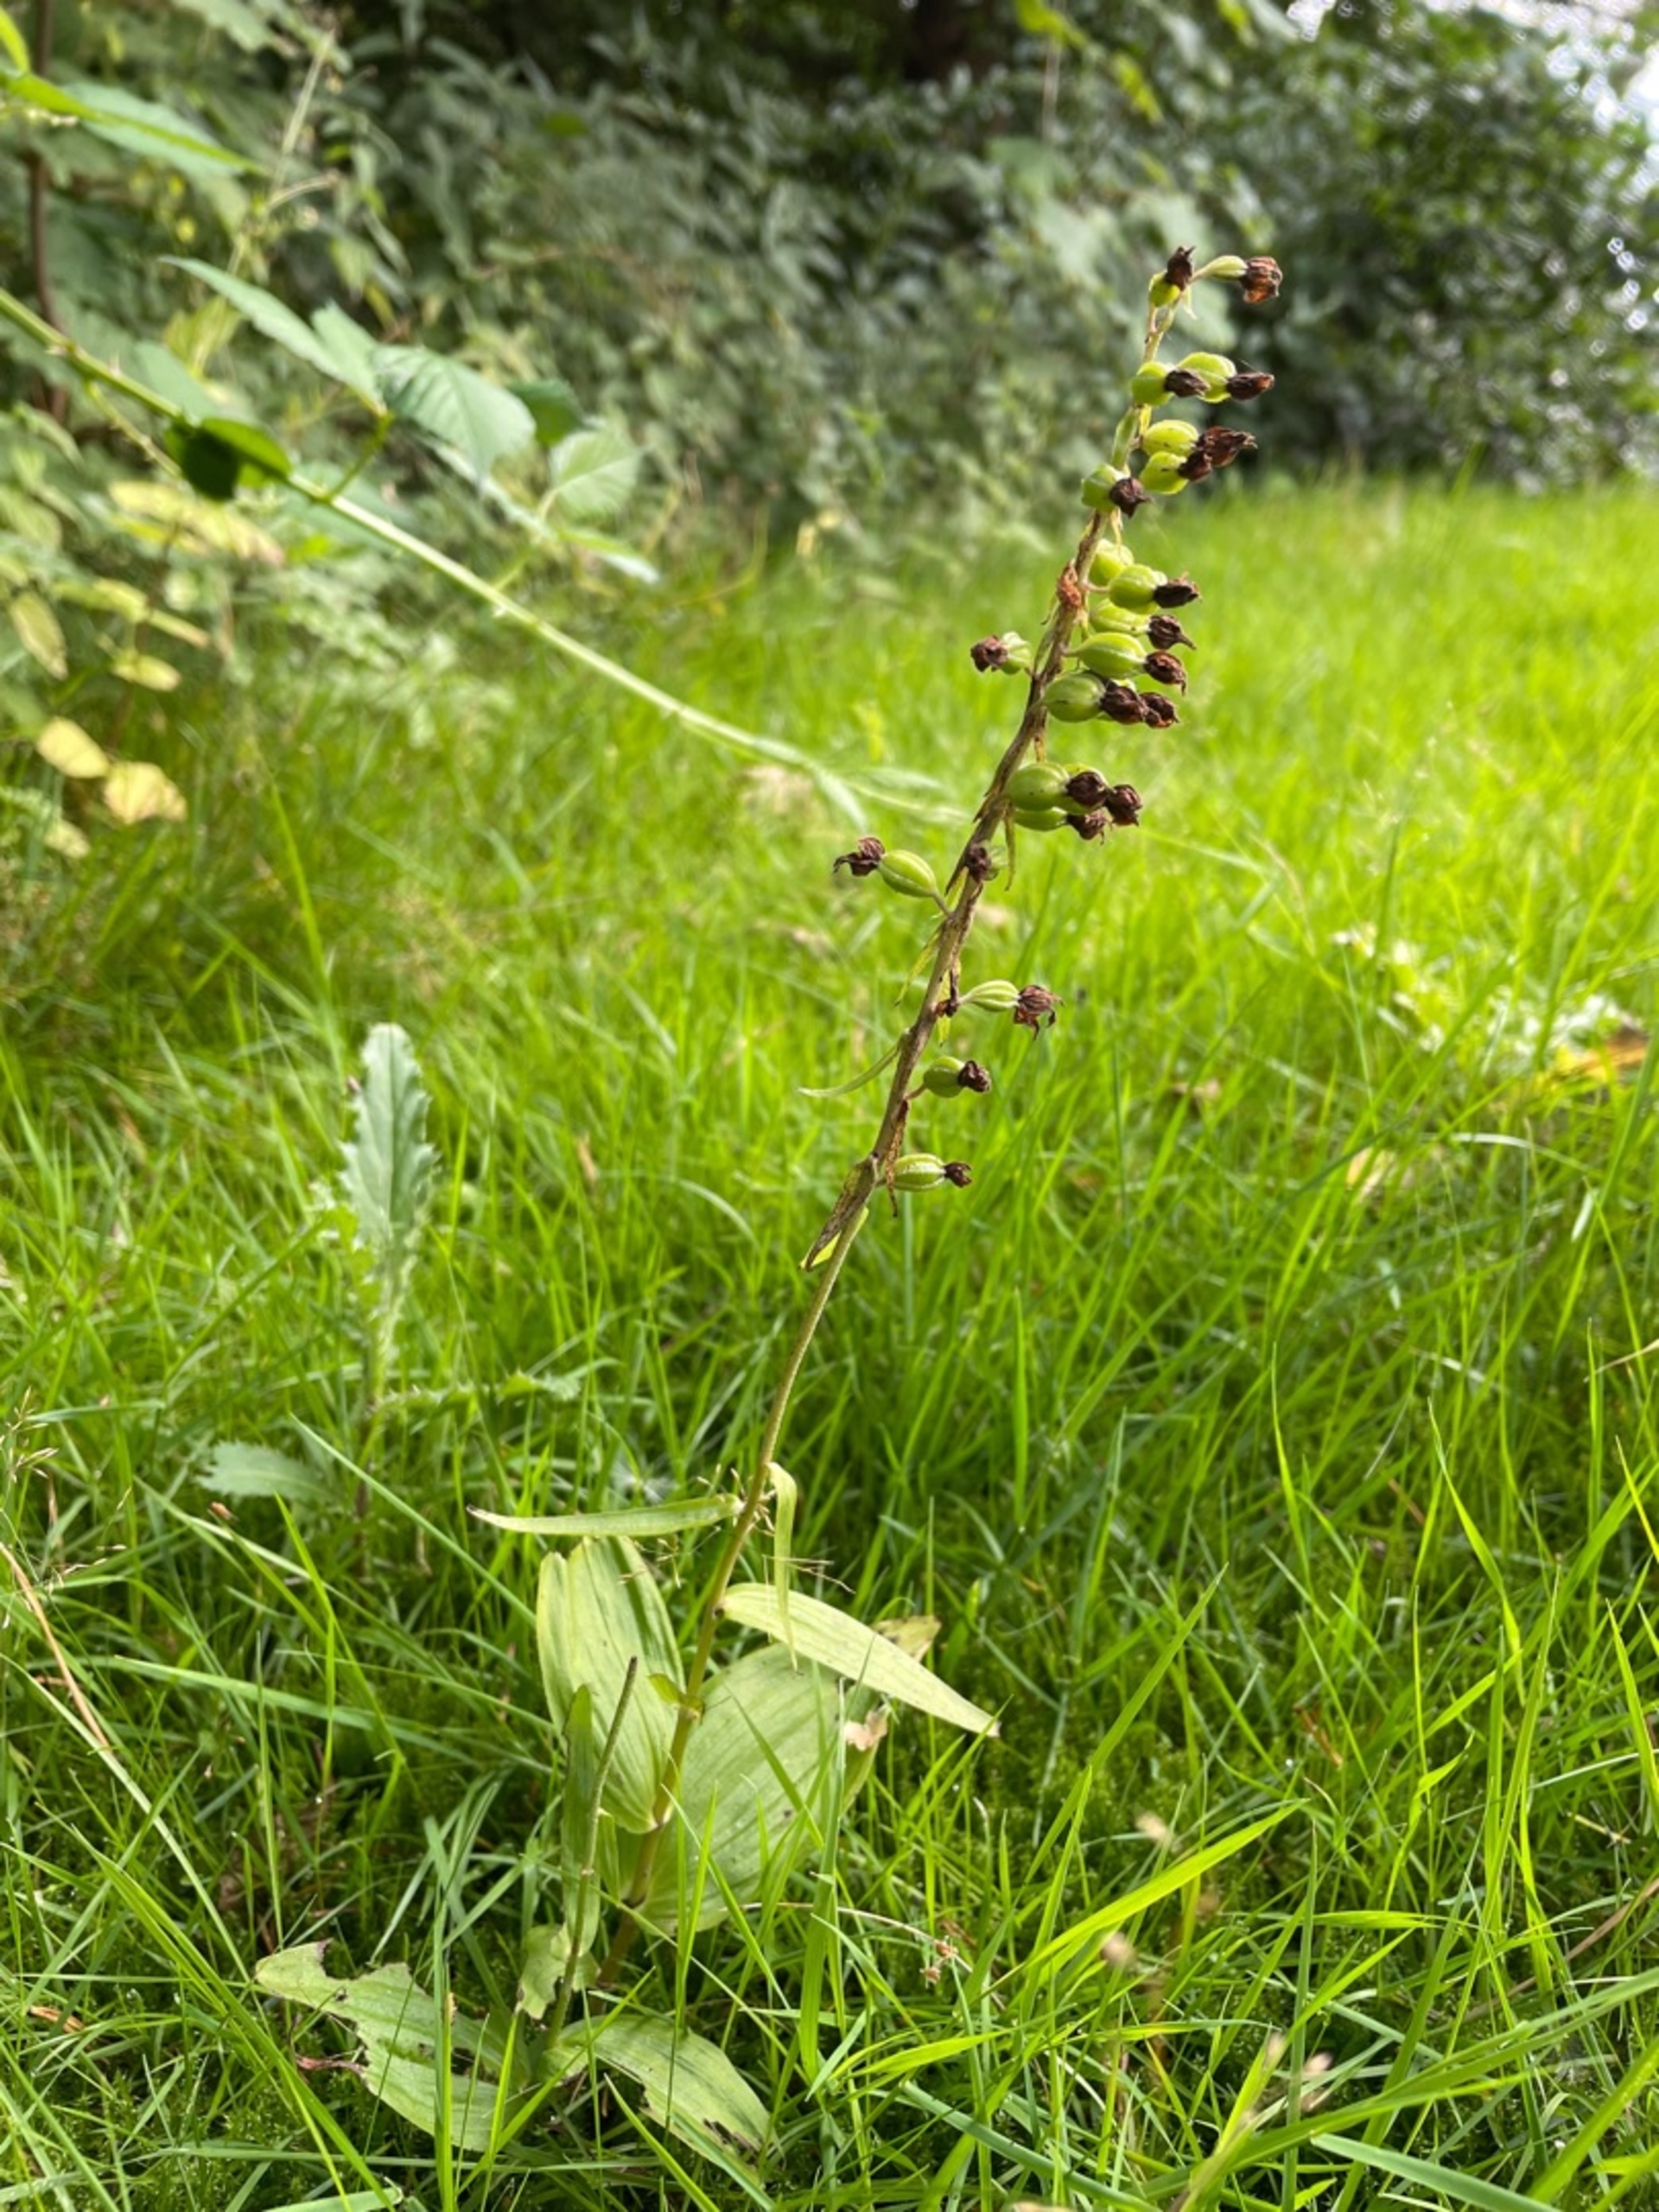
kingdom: Plantae
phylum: Tracheophyta
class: Liliopsida
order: Asparagales
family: Orchidaceae
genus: Epipactis
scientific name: Epipactis helleborine
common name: Skov-hullæbe
